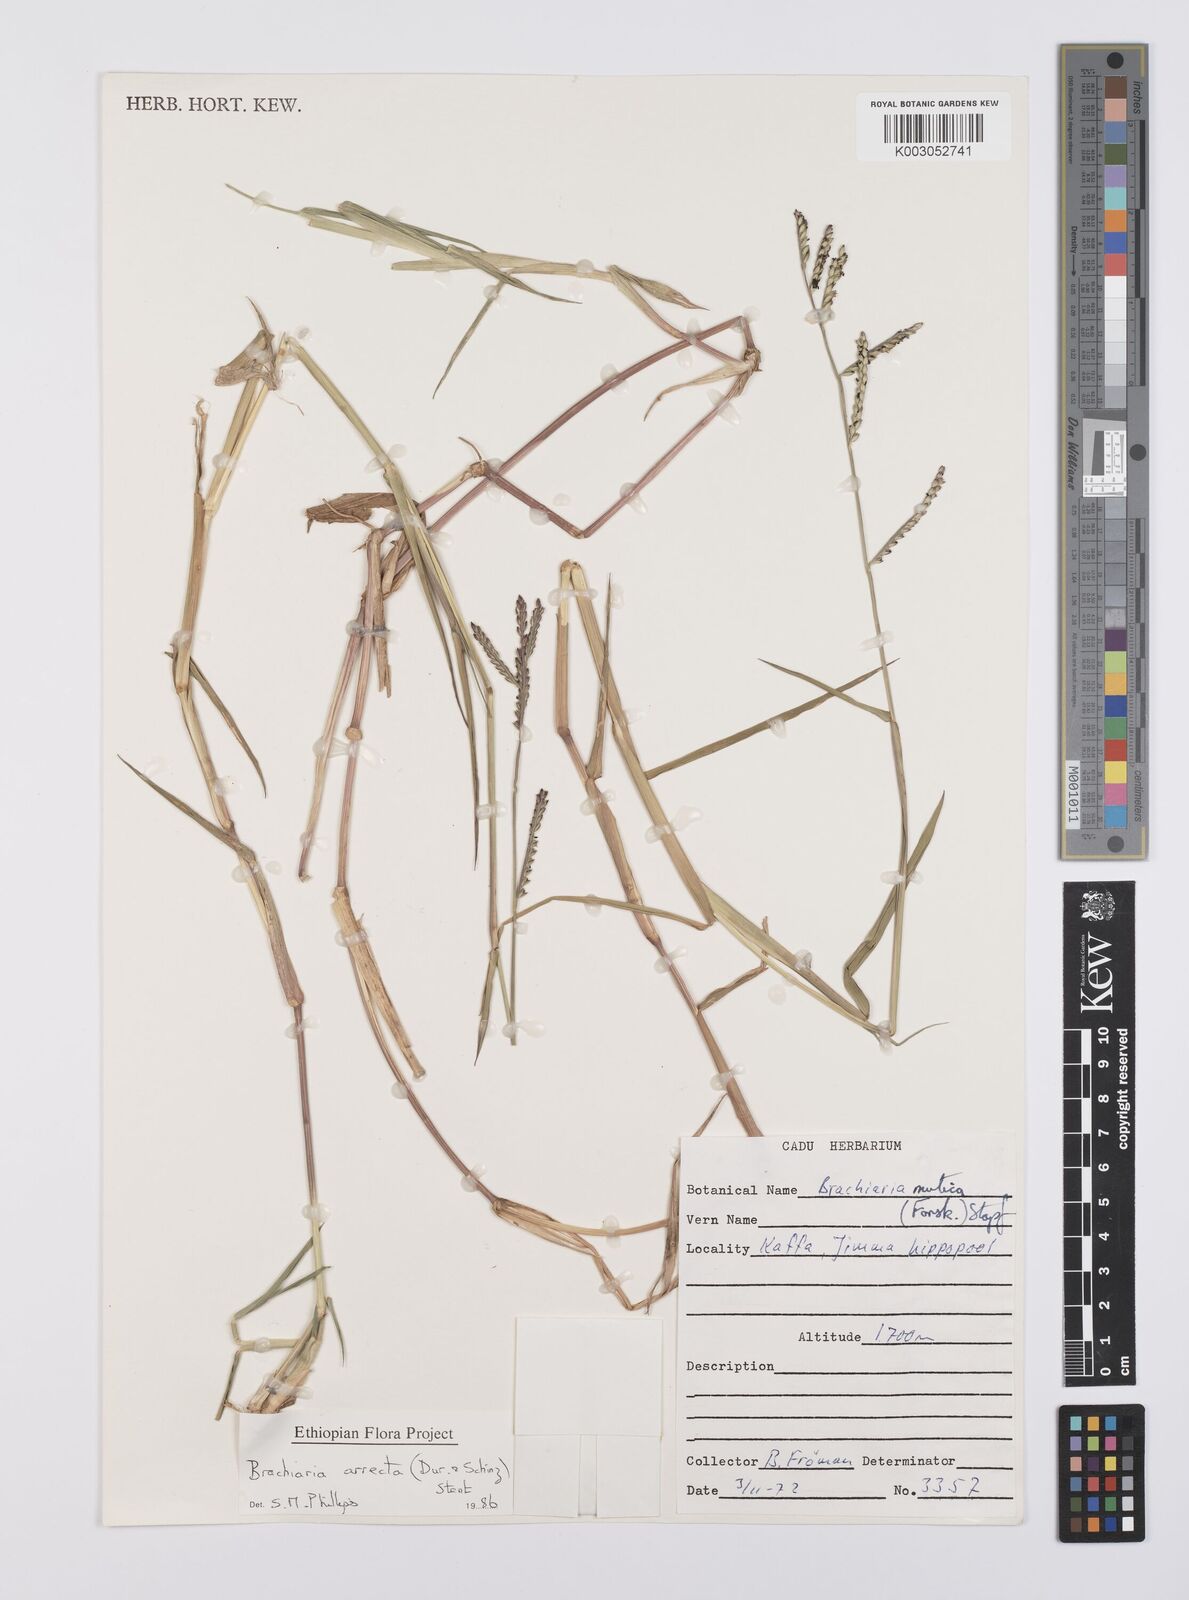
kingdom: Plantae
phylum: Tracheophyta
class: Liliopsida
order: Poales
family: Poaceae
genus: Urochloa
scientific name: Urochloa arrecta
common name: African signalgrass
